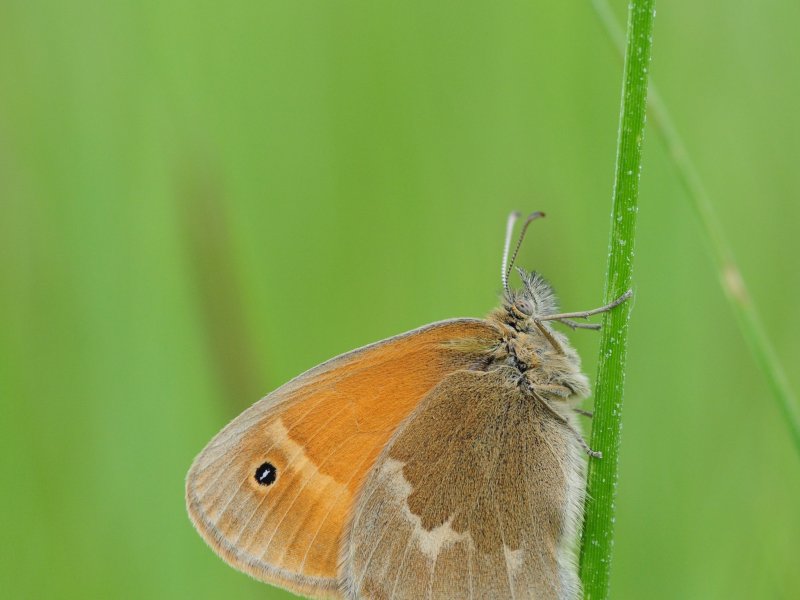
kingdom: Animalia
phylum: Arthropoda
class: Insecta
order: Lepidoptera
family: Nymphalidae
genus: Coenonympha
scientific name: Coenonympha inornata
